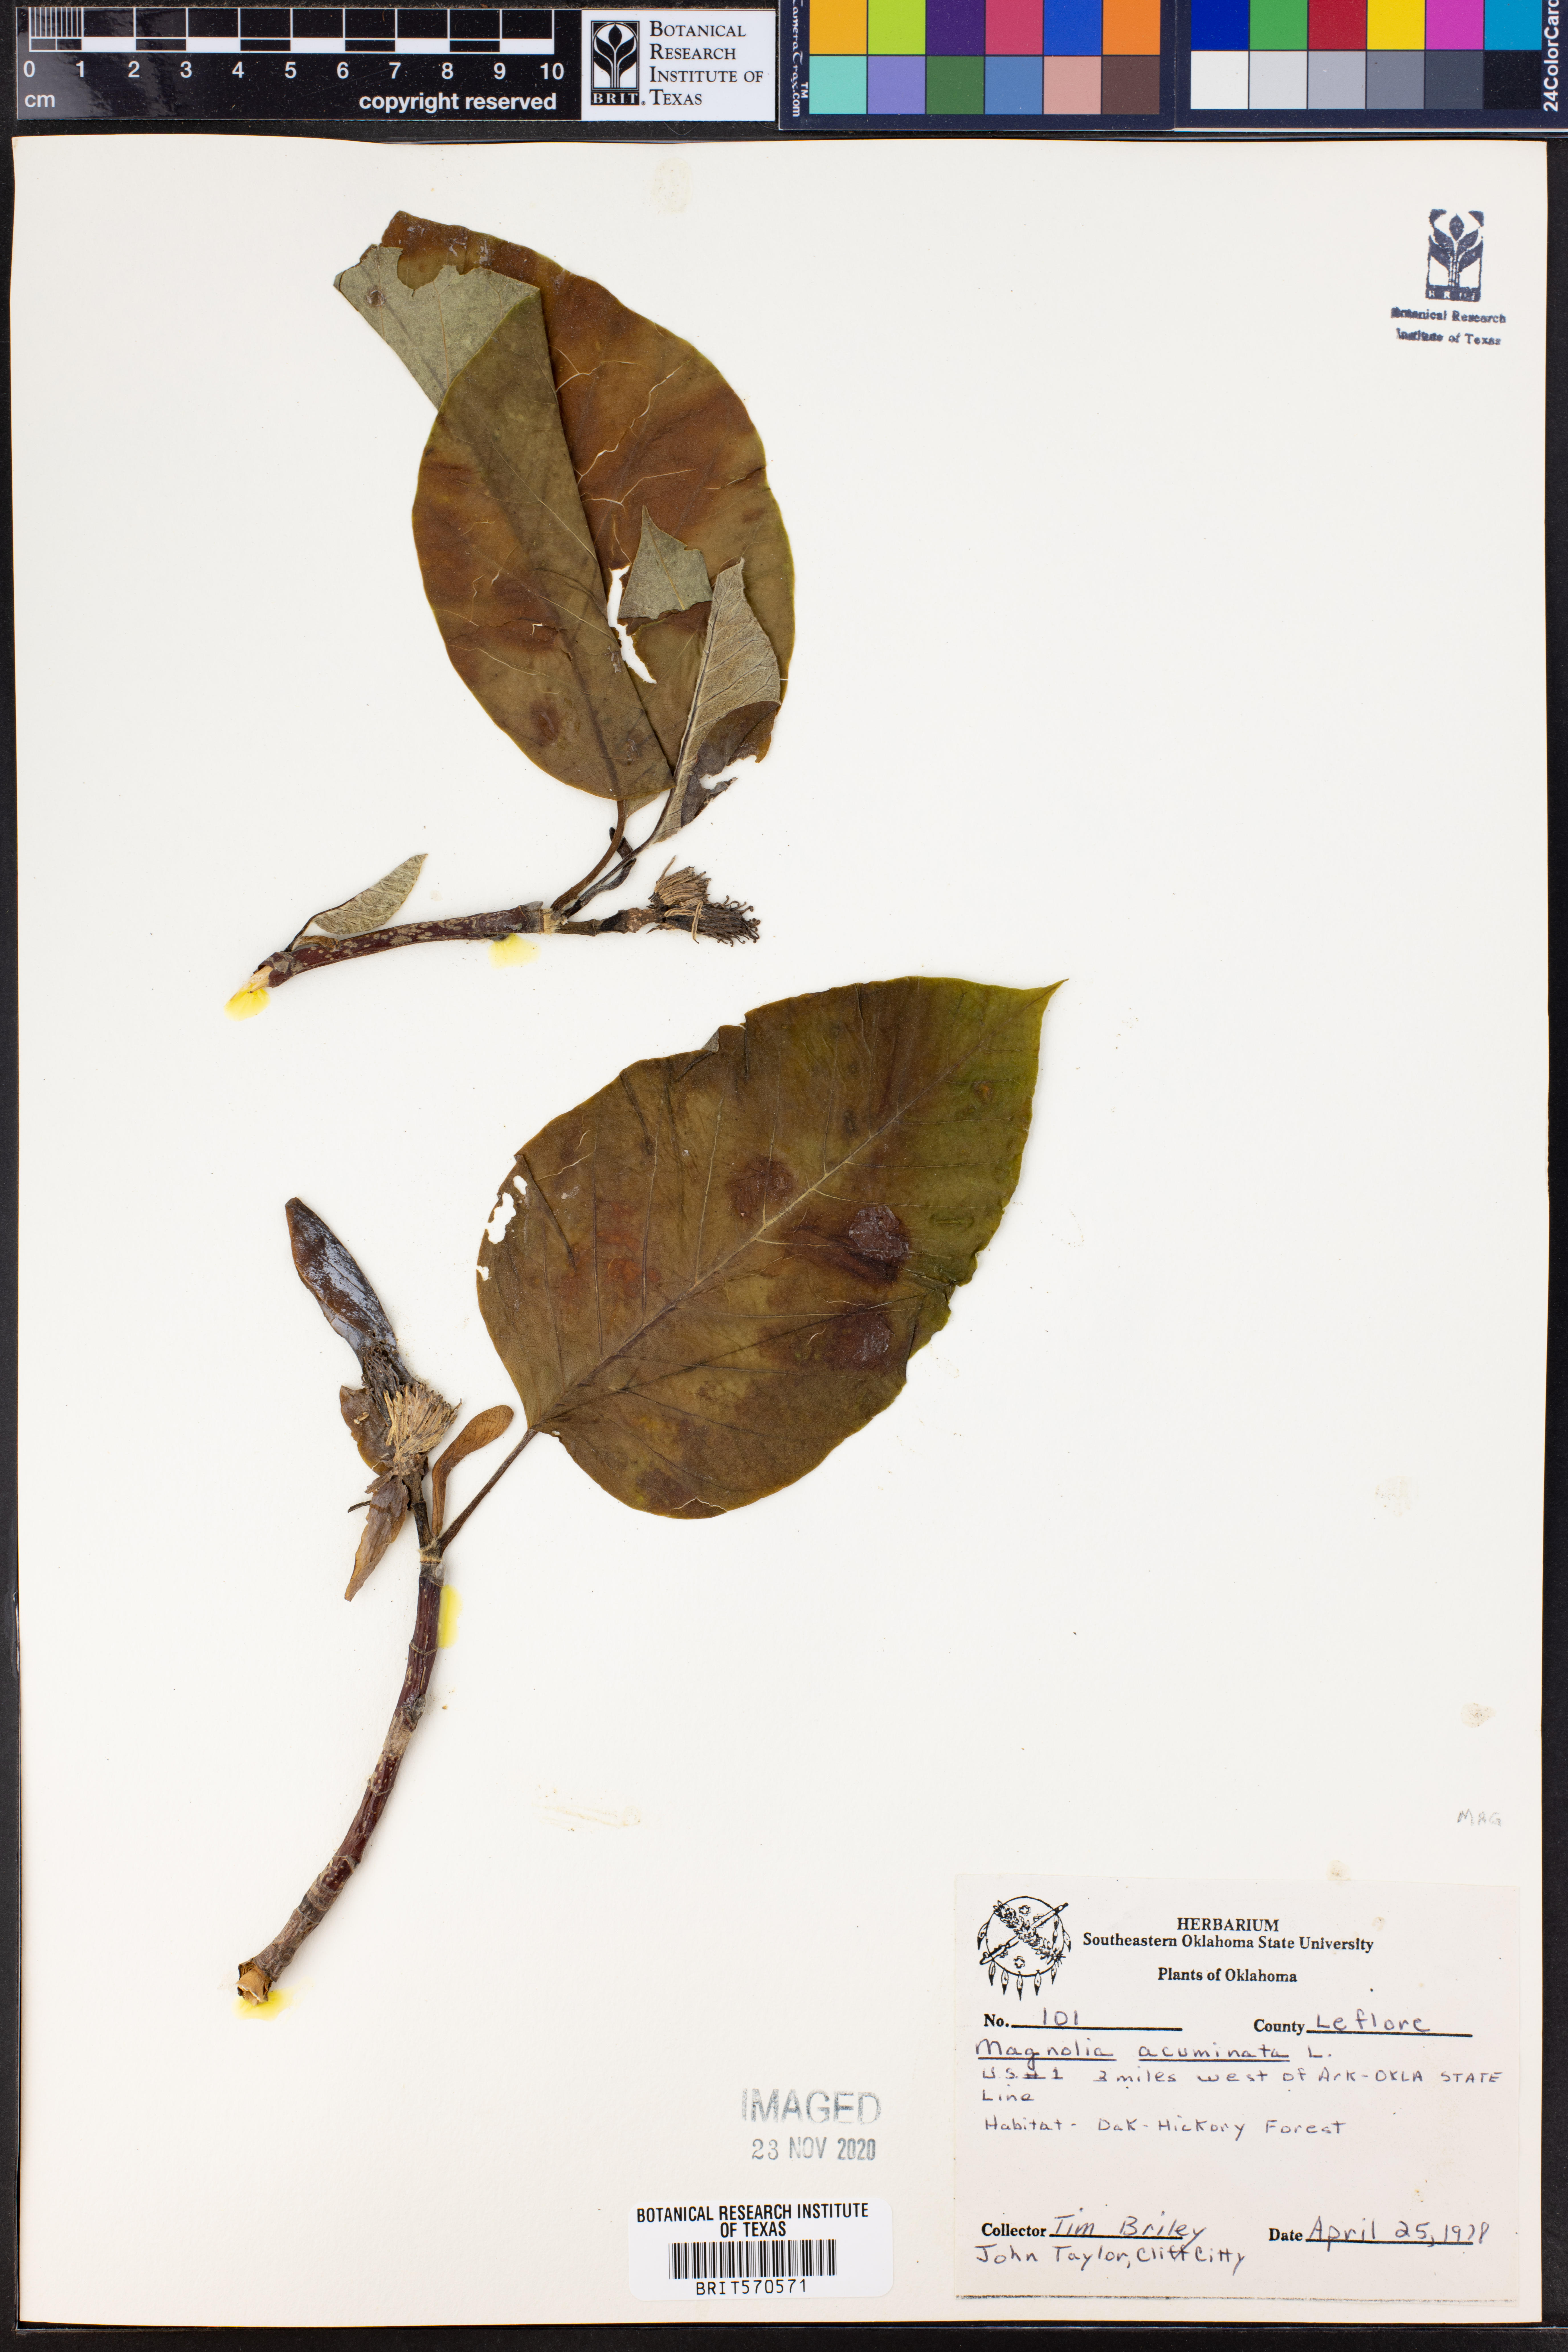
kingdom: Plantae
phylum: Tracheophyta
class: Magnoliopsida
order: Magnoliales
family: Magnoliaceae
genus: Magnolia
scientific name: Magnolia acuminata
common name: Cucumber magnolia
